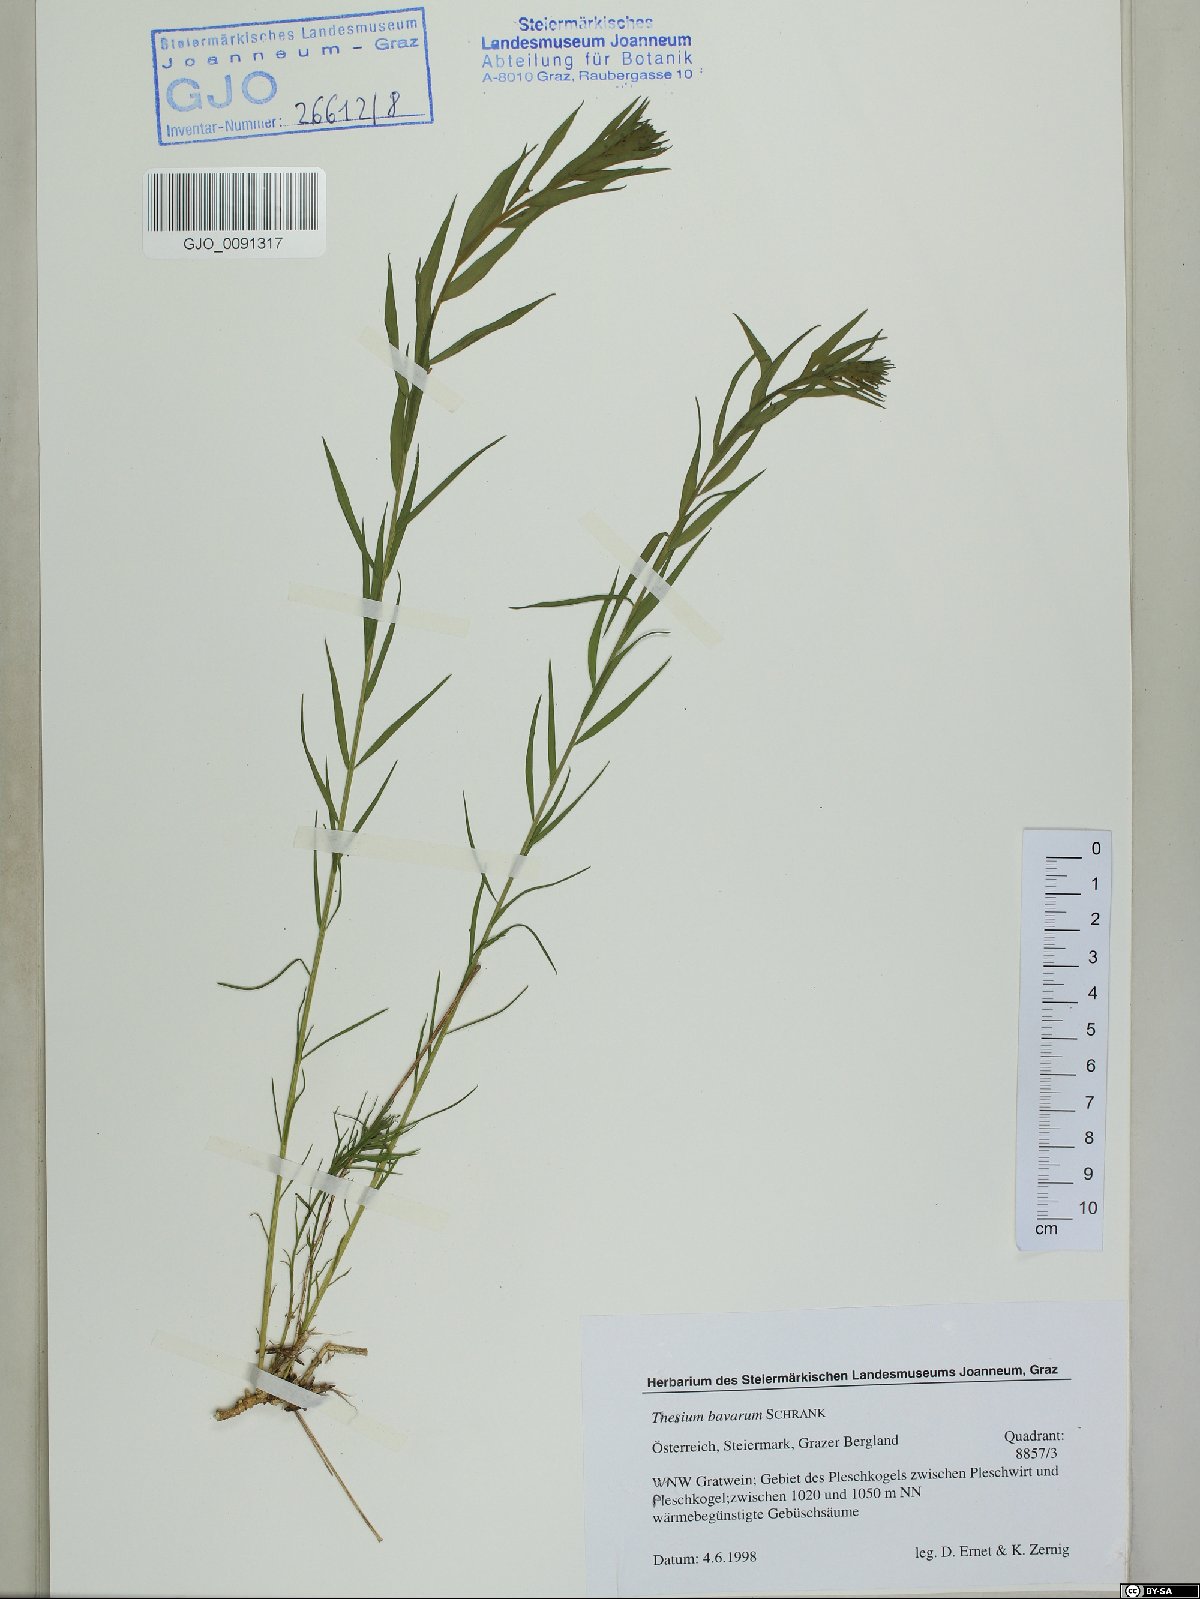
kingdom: Plantae
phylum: Tracheophyta
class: Magnoliopsida
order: Santalales
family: Thesiaceae
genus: Thesium
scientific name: Thesium bavarum
